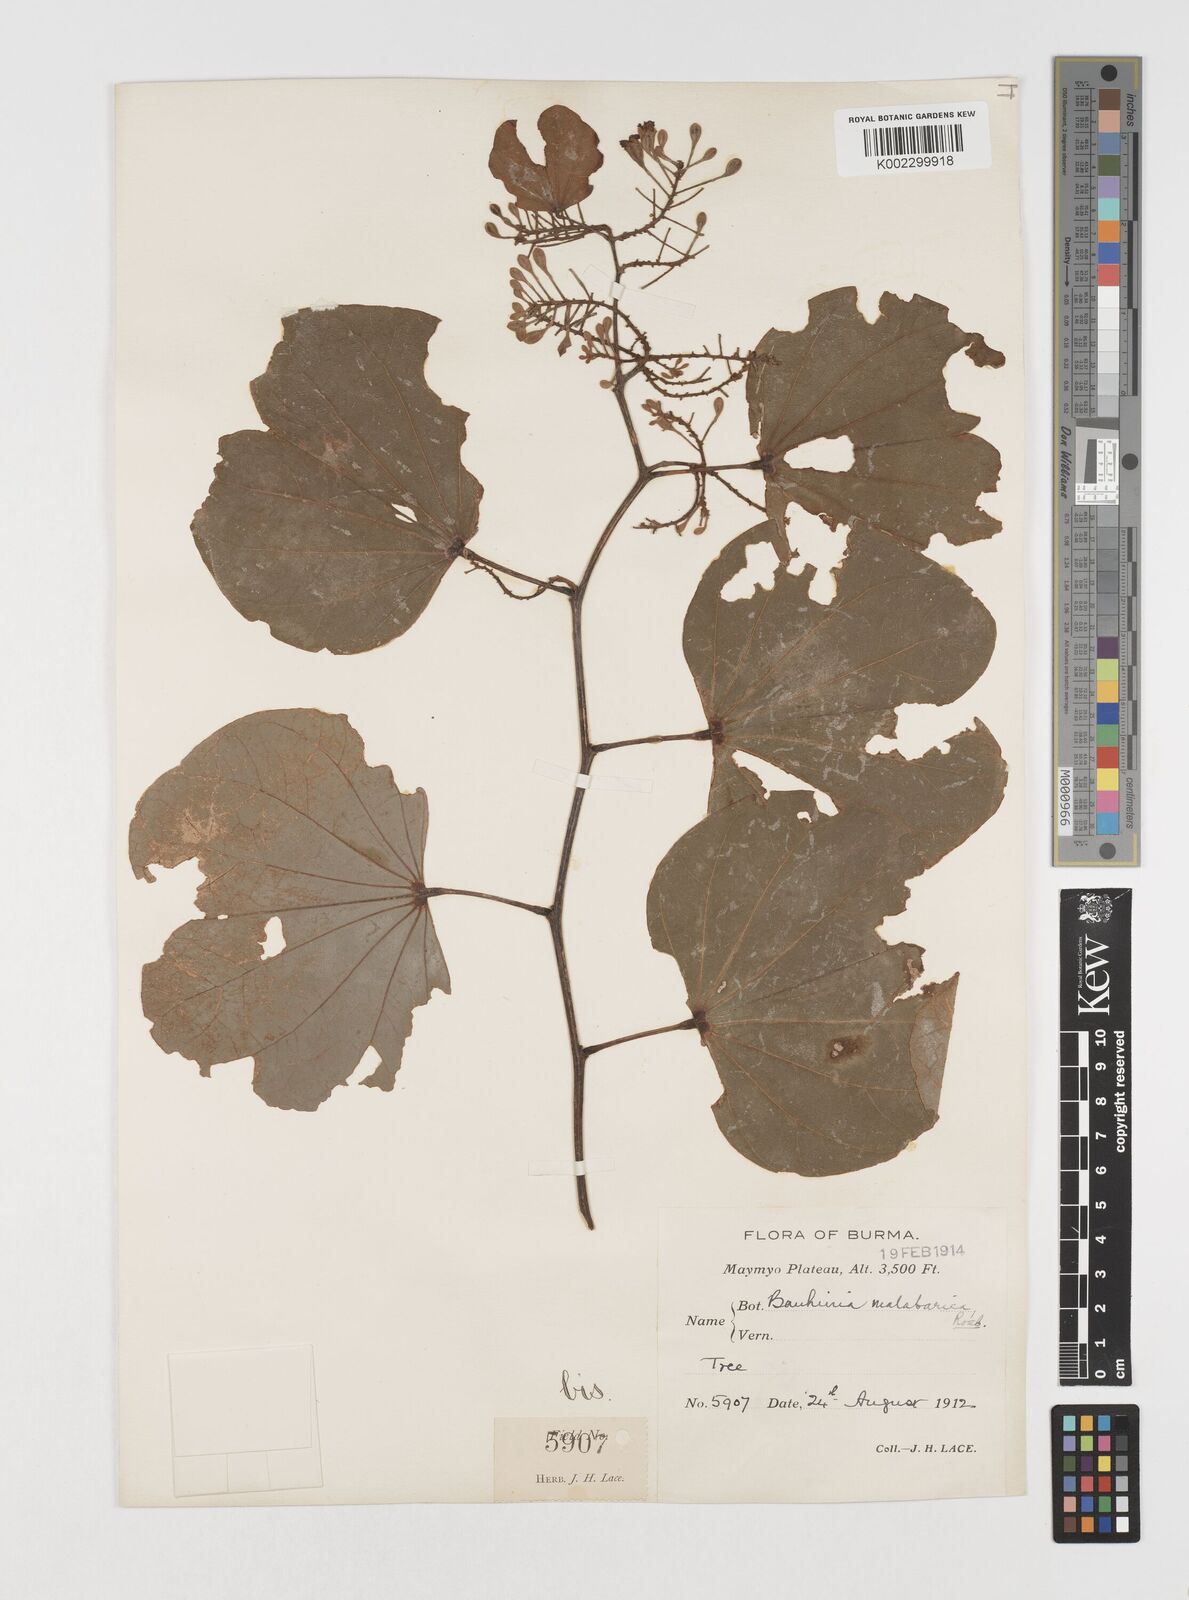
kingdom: Plantae
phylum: Tracheophyta
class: Magnoliopsida
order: Fabales
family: Fabaceae
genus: Piliostigma
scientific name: Piliostigma malabaricum
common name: Malabar bauhinia
